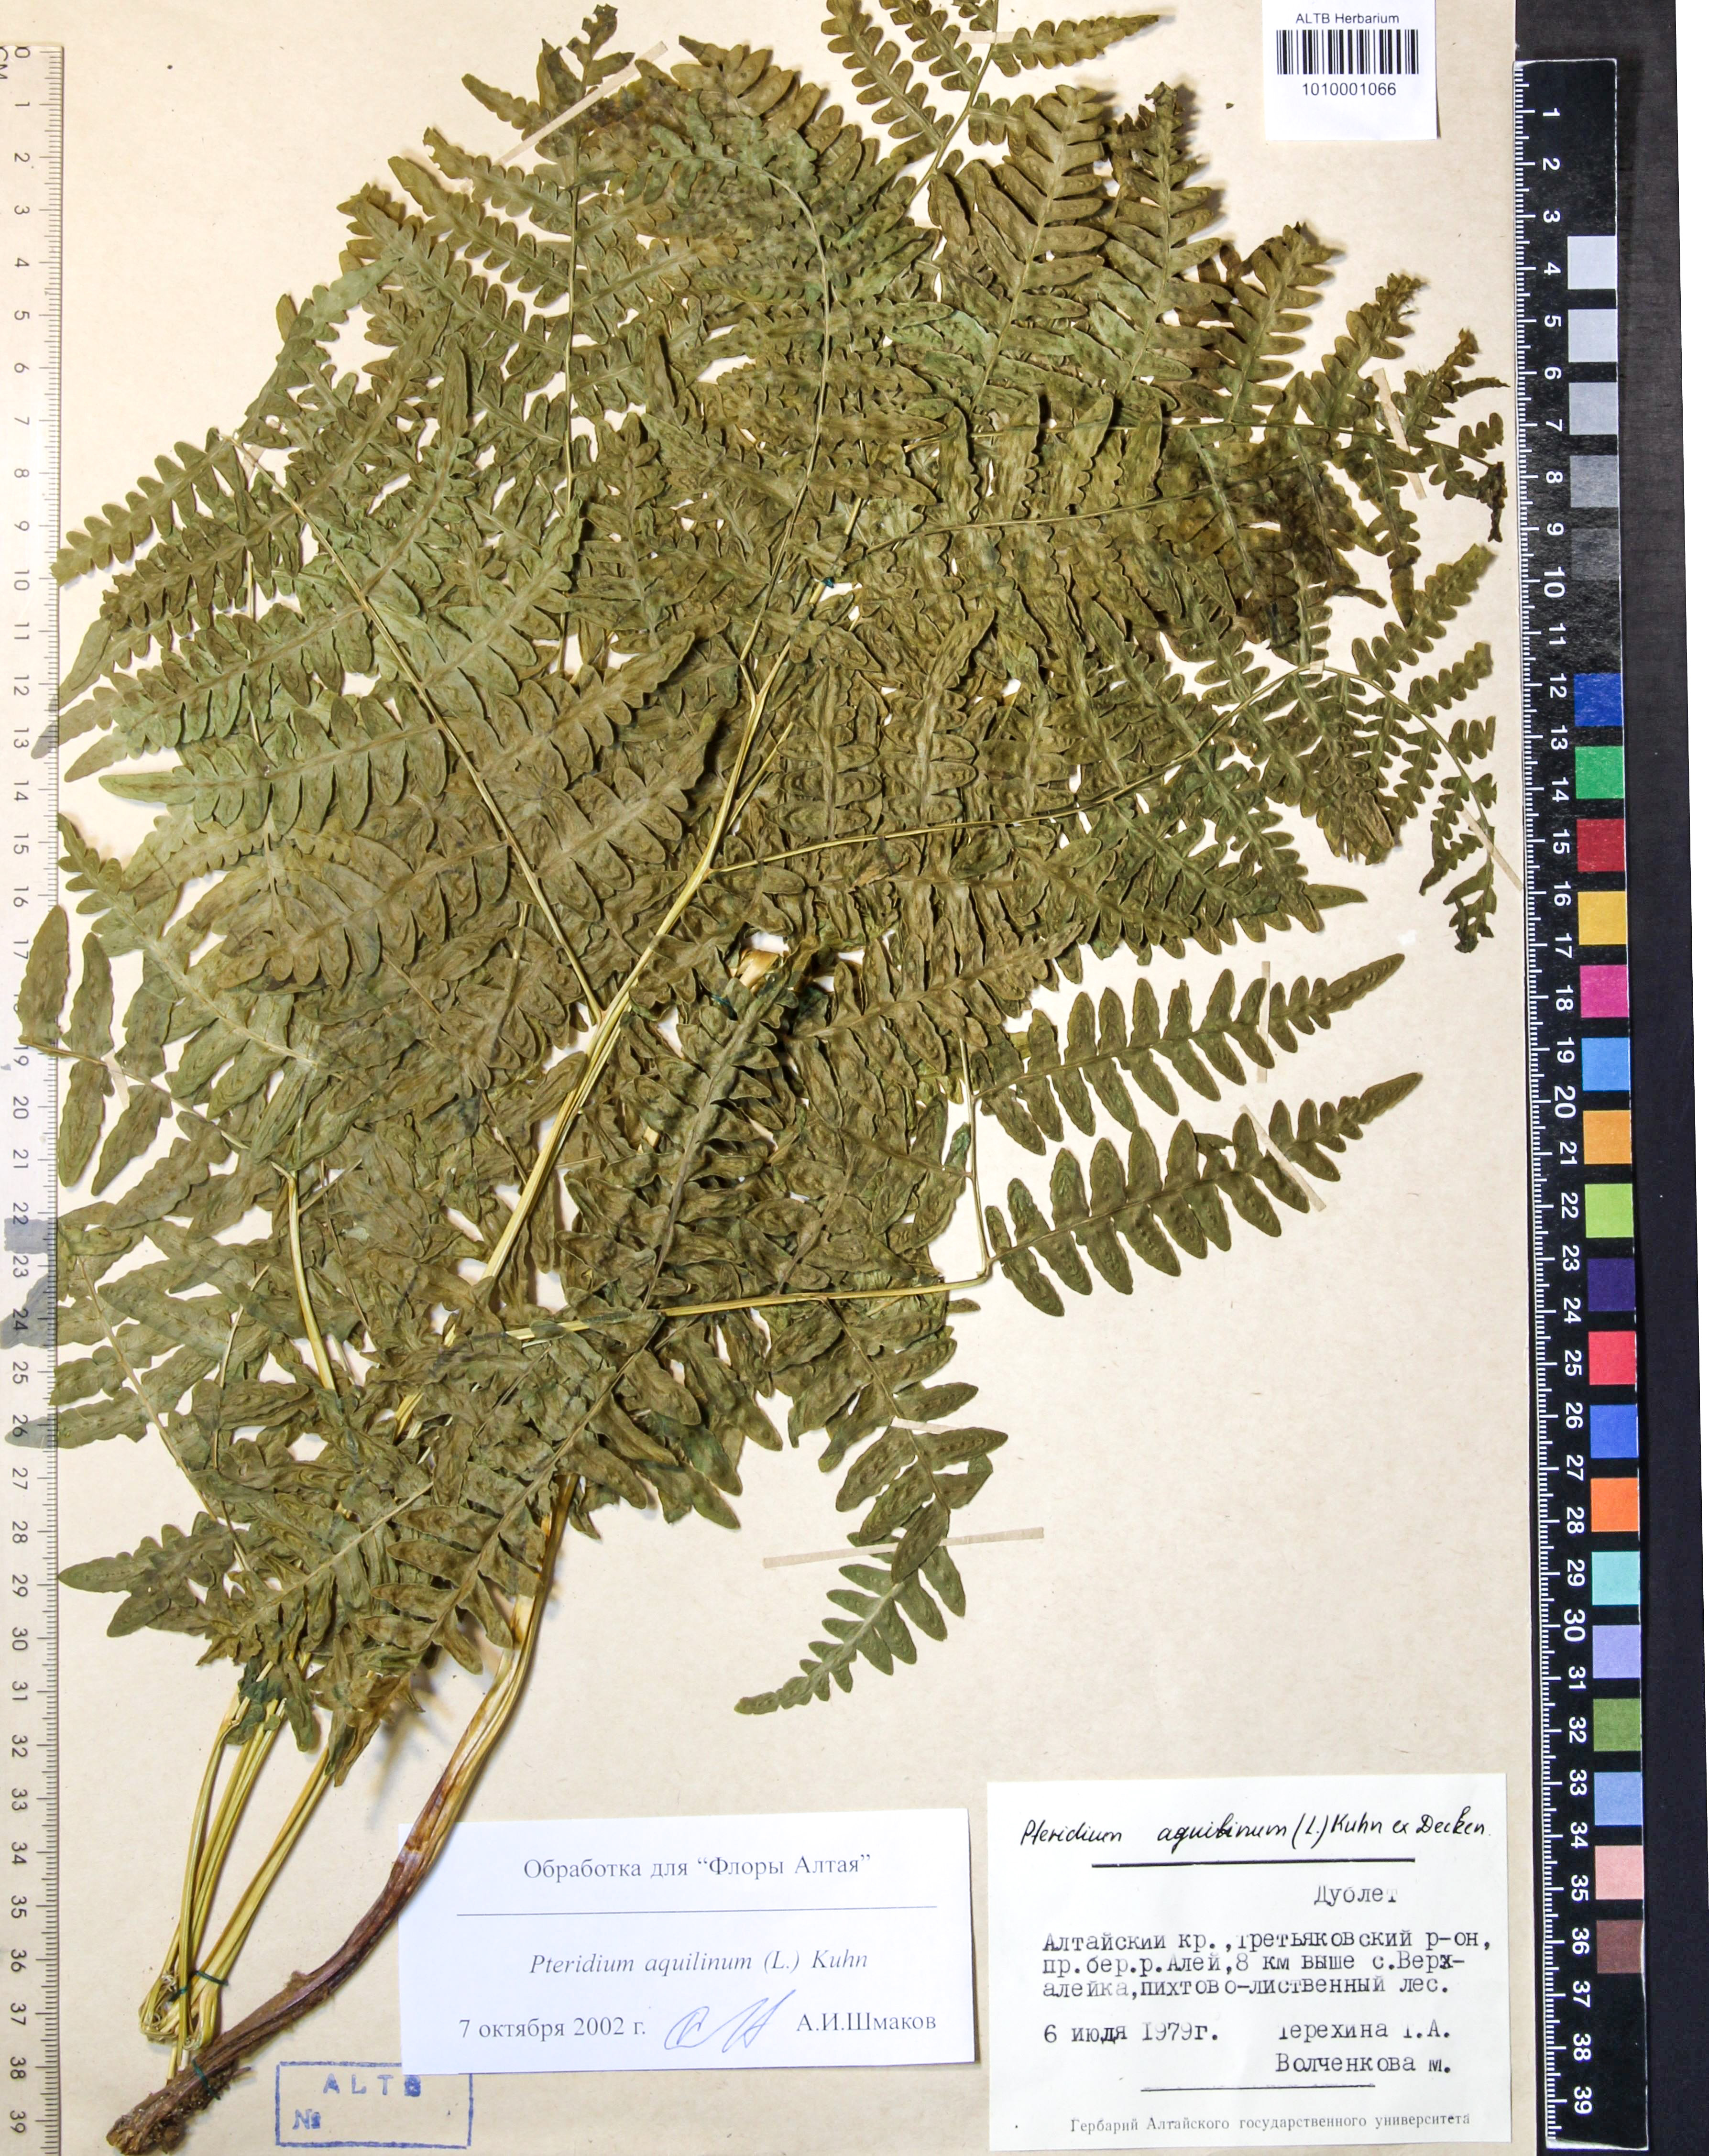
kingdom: Plantae
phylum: Tracheophyta
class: Polypodiopsida
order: Polypodiales
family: Dennstaedtiaceae
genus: Pteridium
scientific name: Pteridium aquilinum
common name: Bracken
